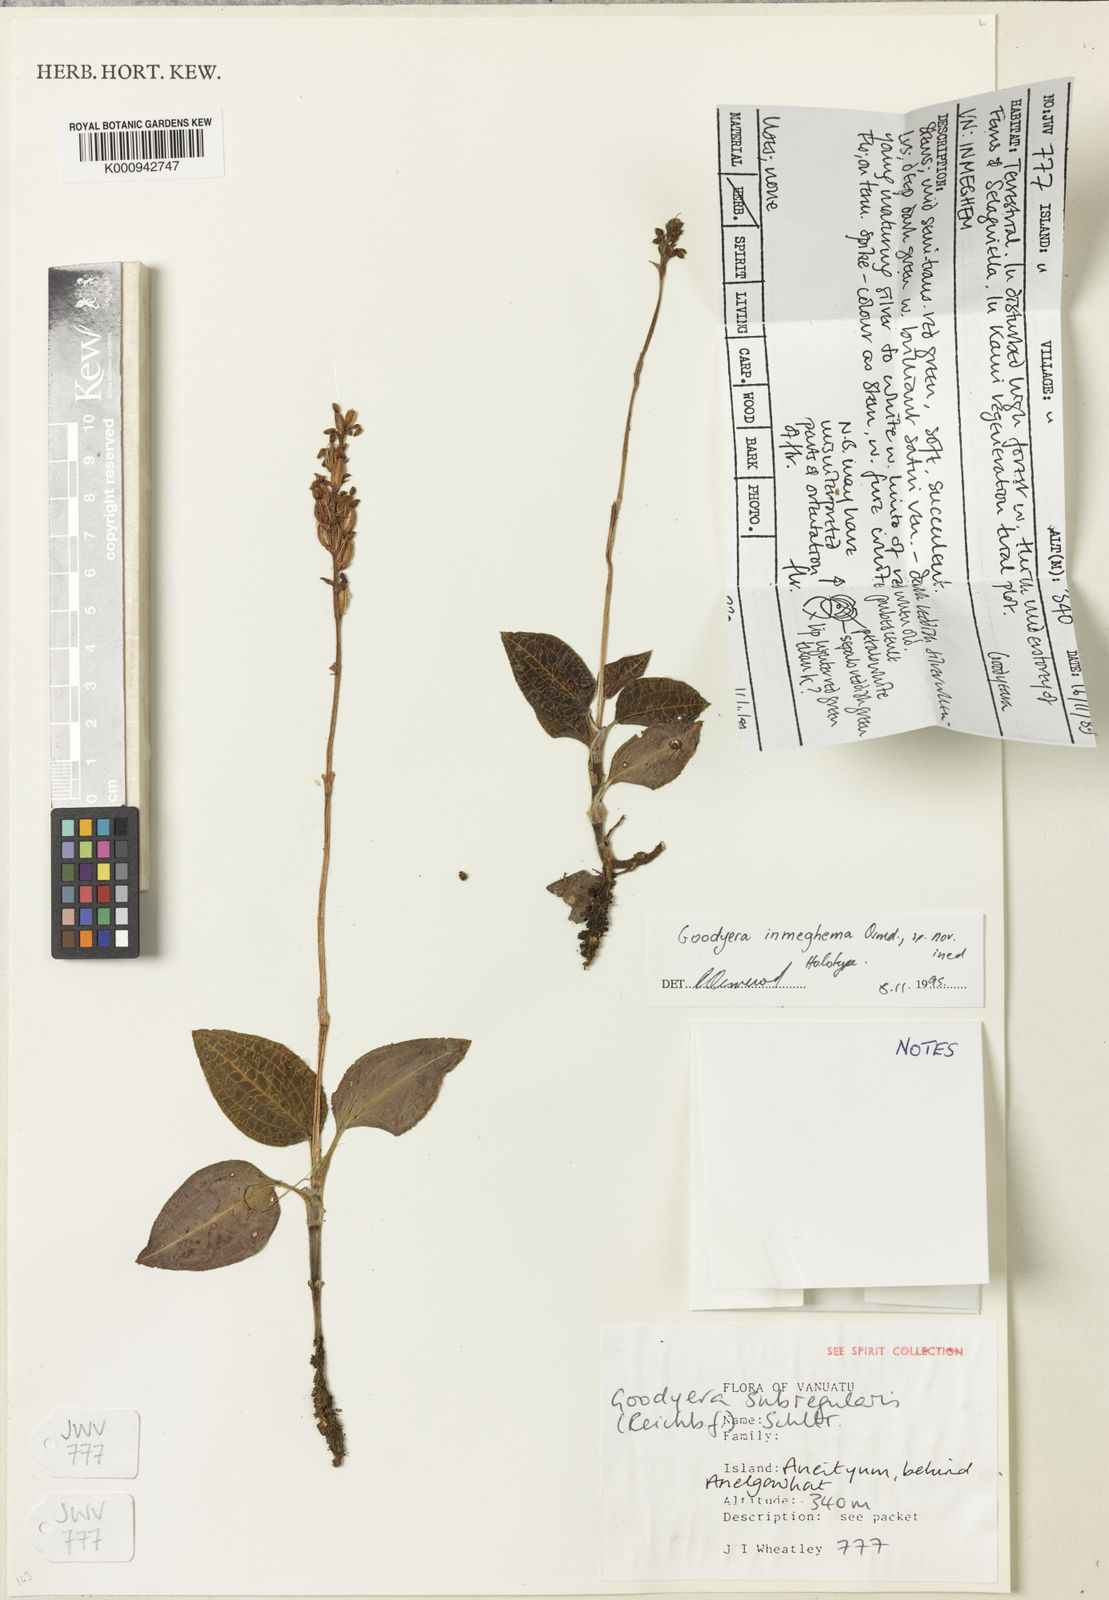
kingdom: Plantae
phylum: Tracheophyta
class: Liliopsida
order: Asparagales
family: Orchidaceae
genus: Goodyera
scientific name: Goodyera inmeghema
